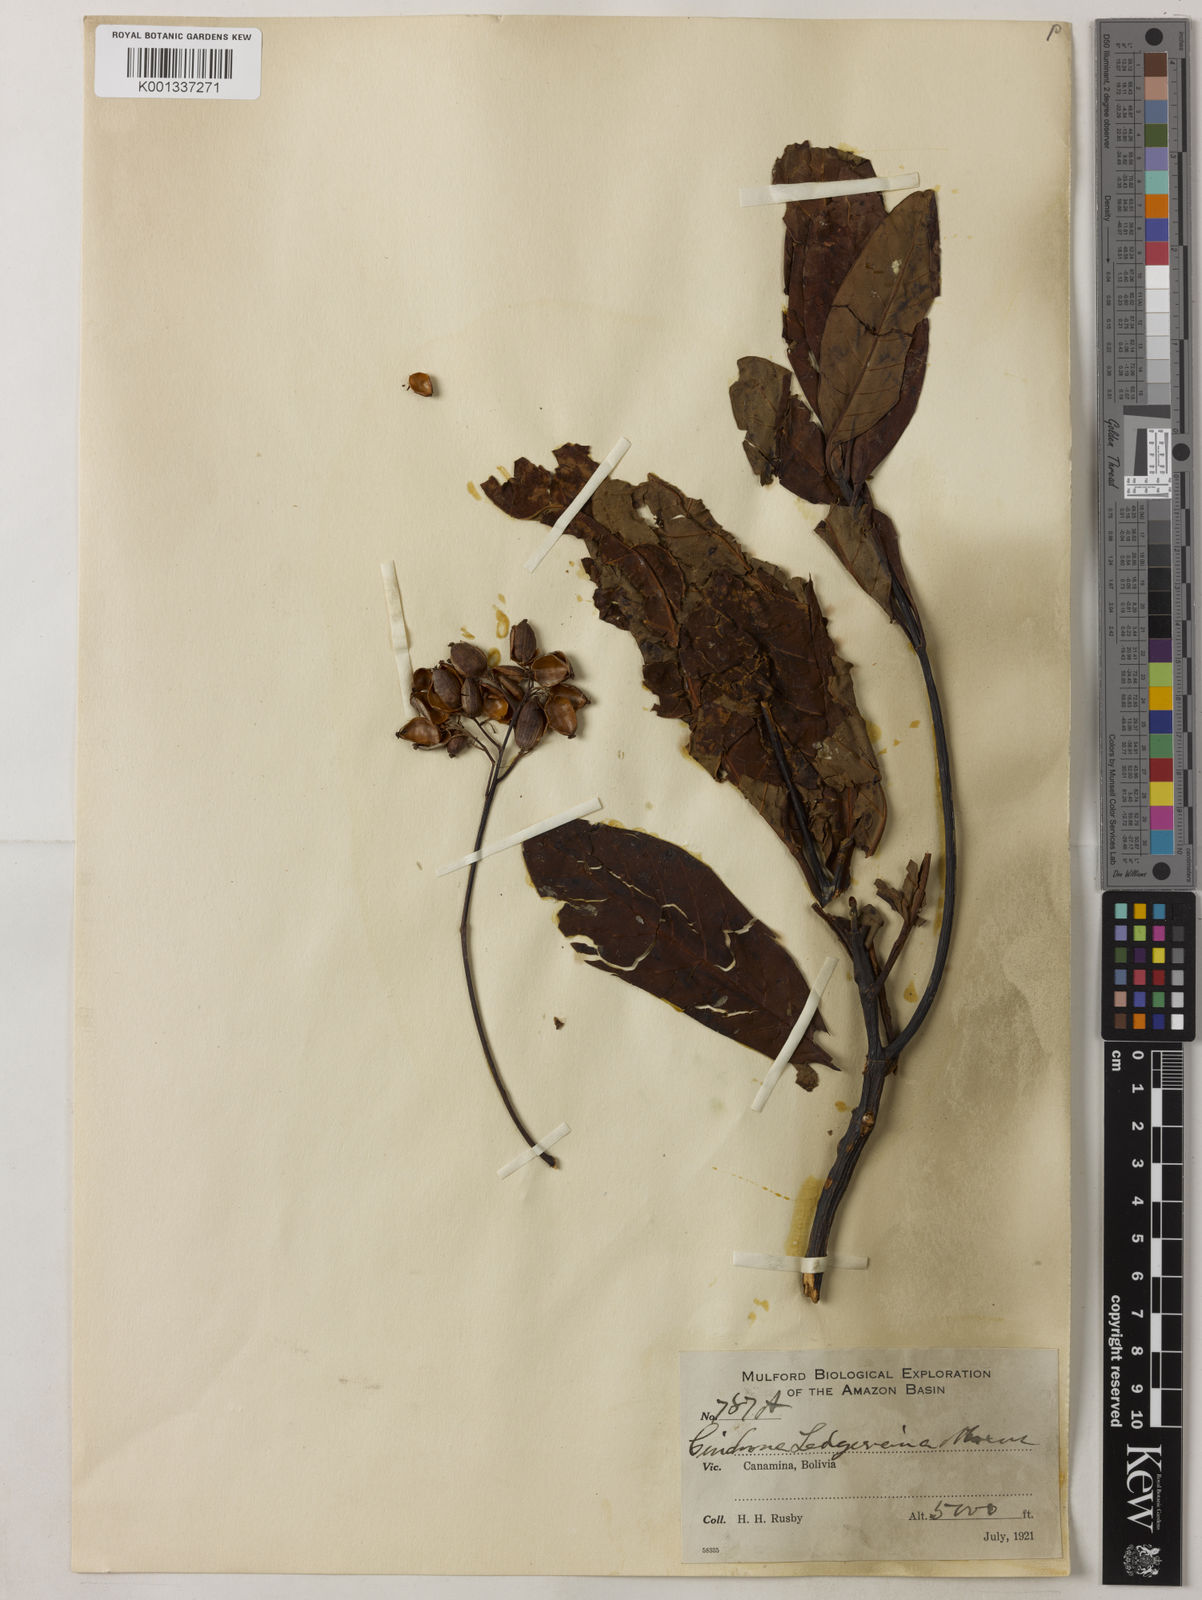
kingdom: Plantae
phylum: Tracheophyta
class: Magnoliopsida
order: Gentianales
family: Rubiaceae
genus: Cinchona
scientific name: Cinchona calisaya
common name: Ledgerbark
